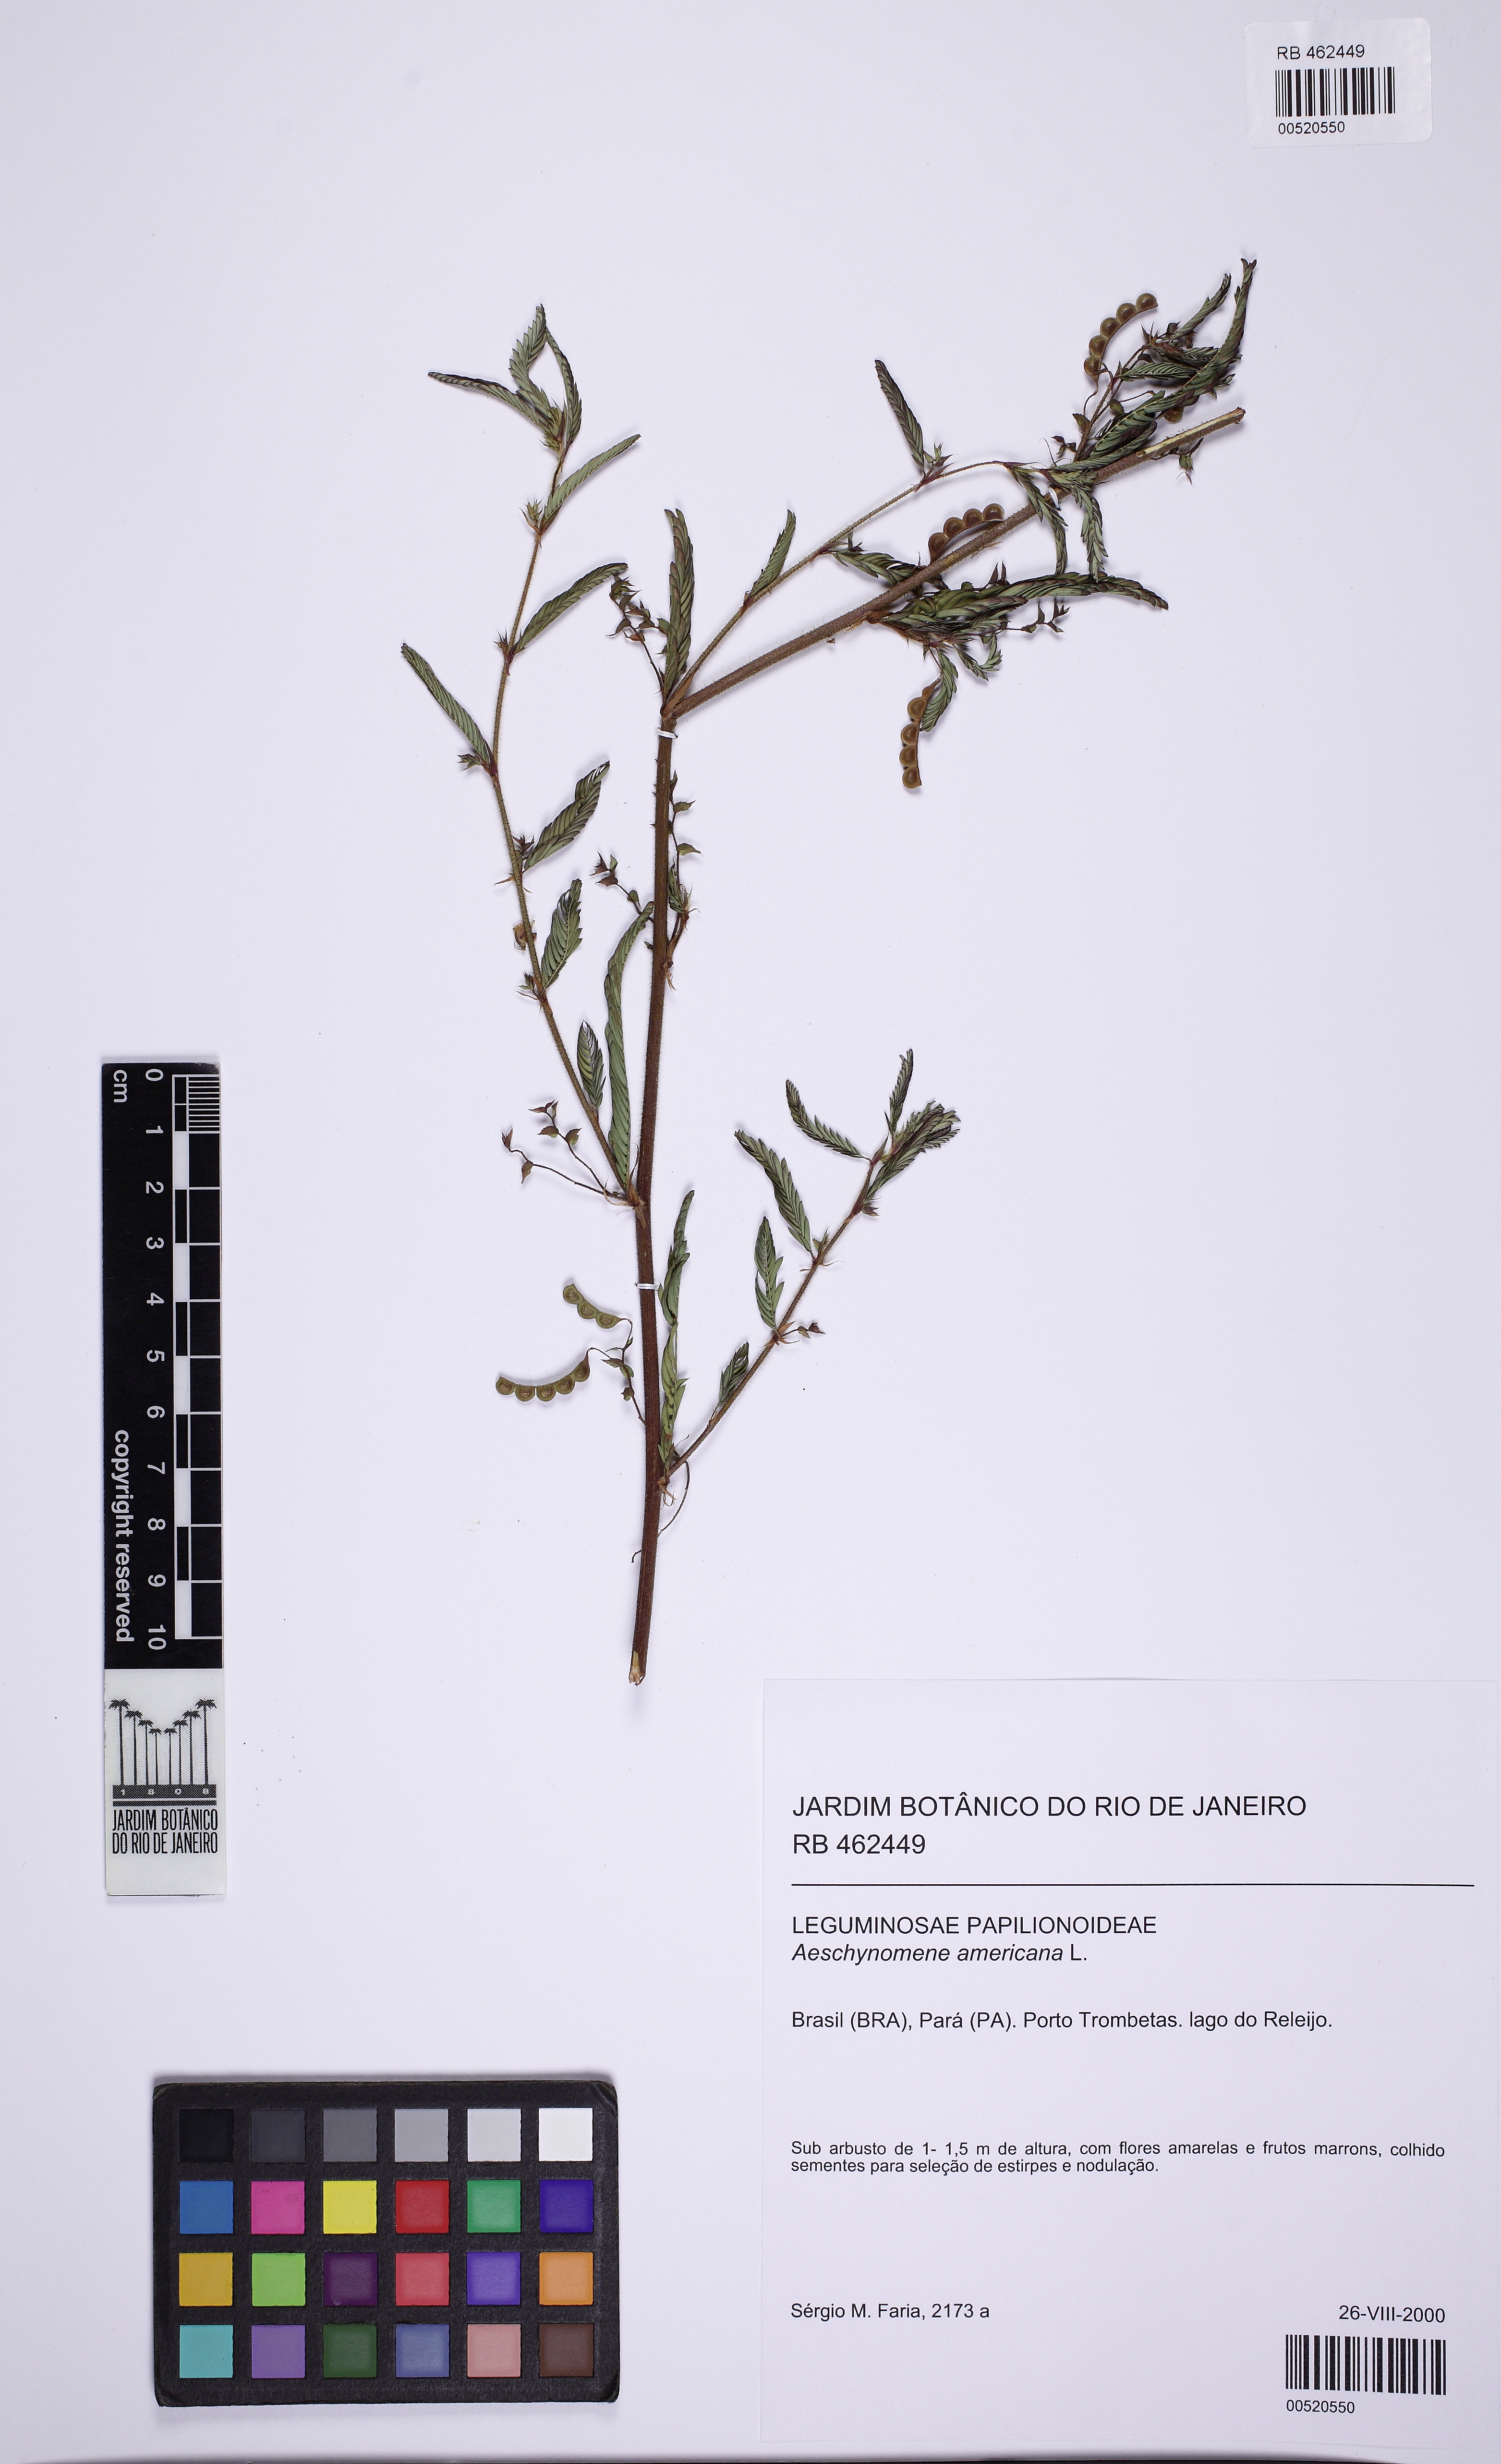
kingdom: Plantae
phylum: Tracheophyta
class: Magnoliopsida
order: Fabales
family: Fabaceae
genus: Aeschynomene
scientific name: Aeschynomene americana
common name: Joint-vetch
